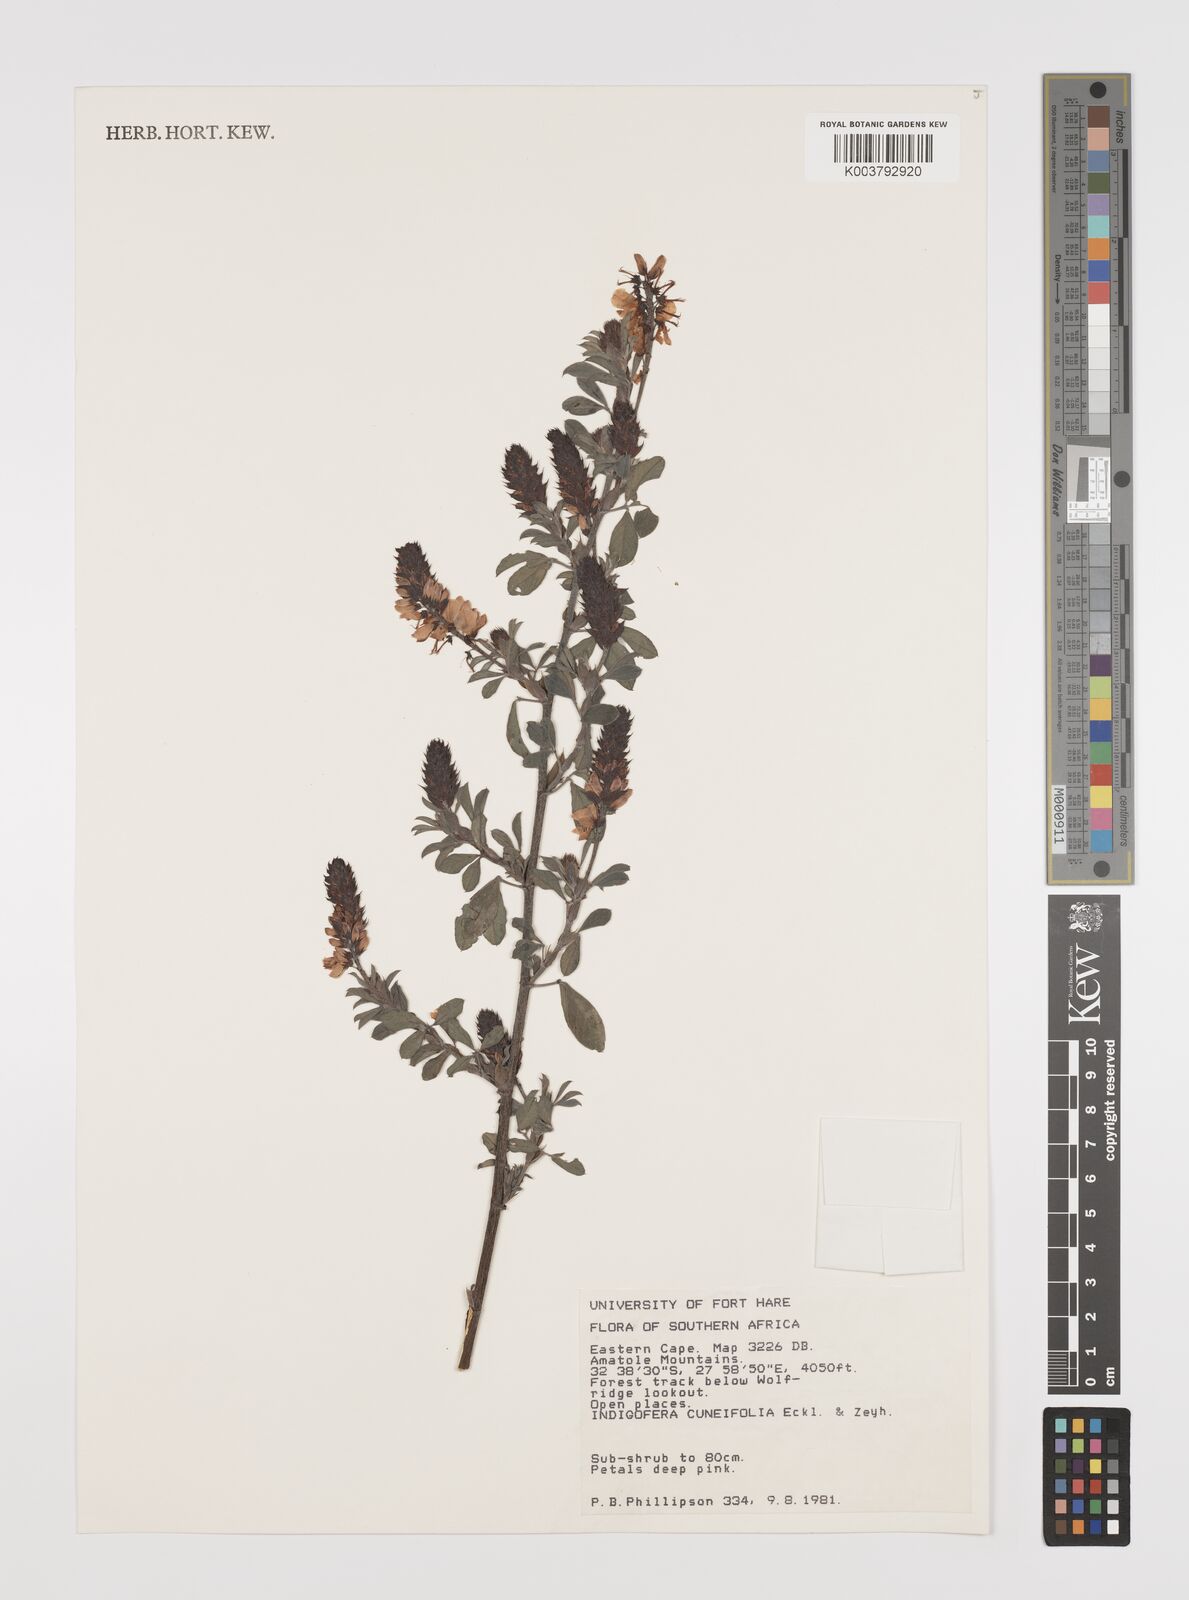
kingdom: Plantae
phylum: Tracheophyta
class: Magnoliopsida
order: Fabales
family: Fabaceae
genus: Indigofera
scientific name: Indigofera cuneifolia
